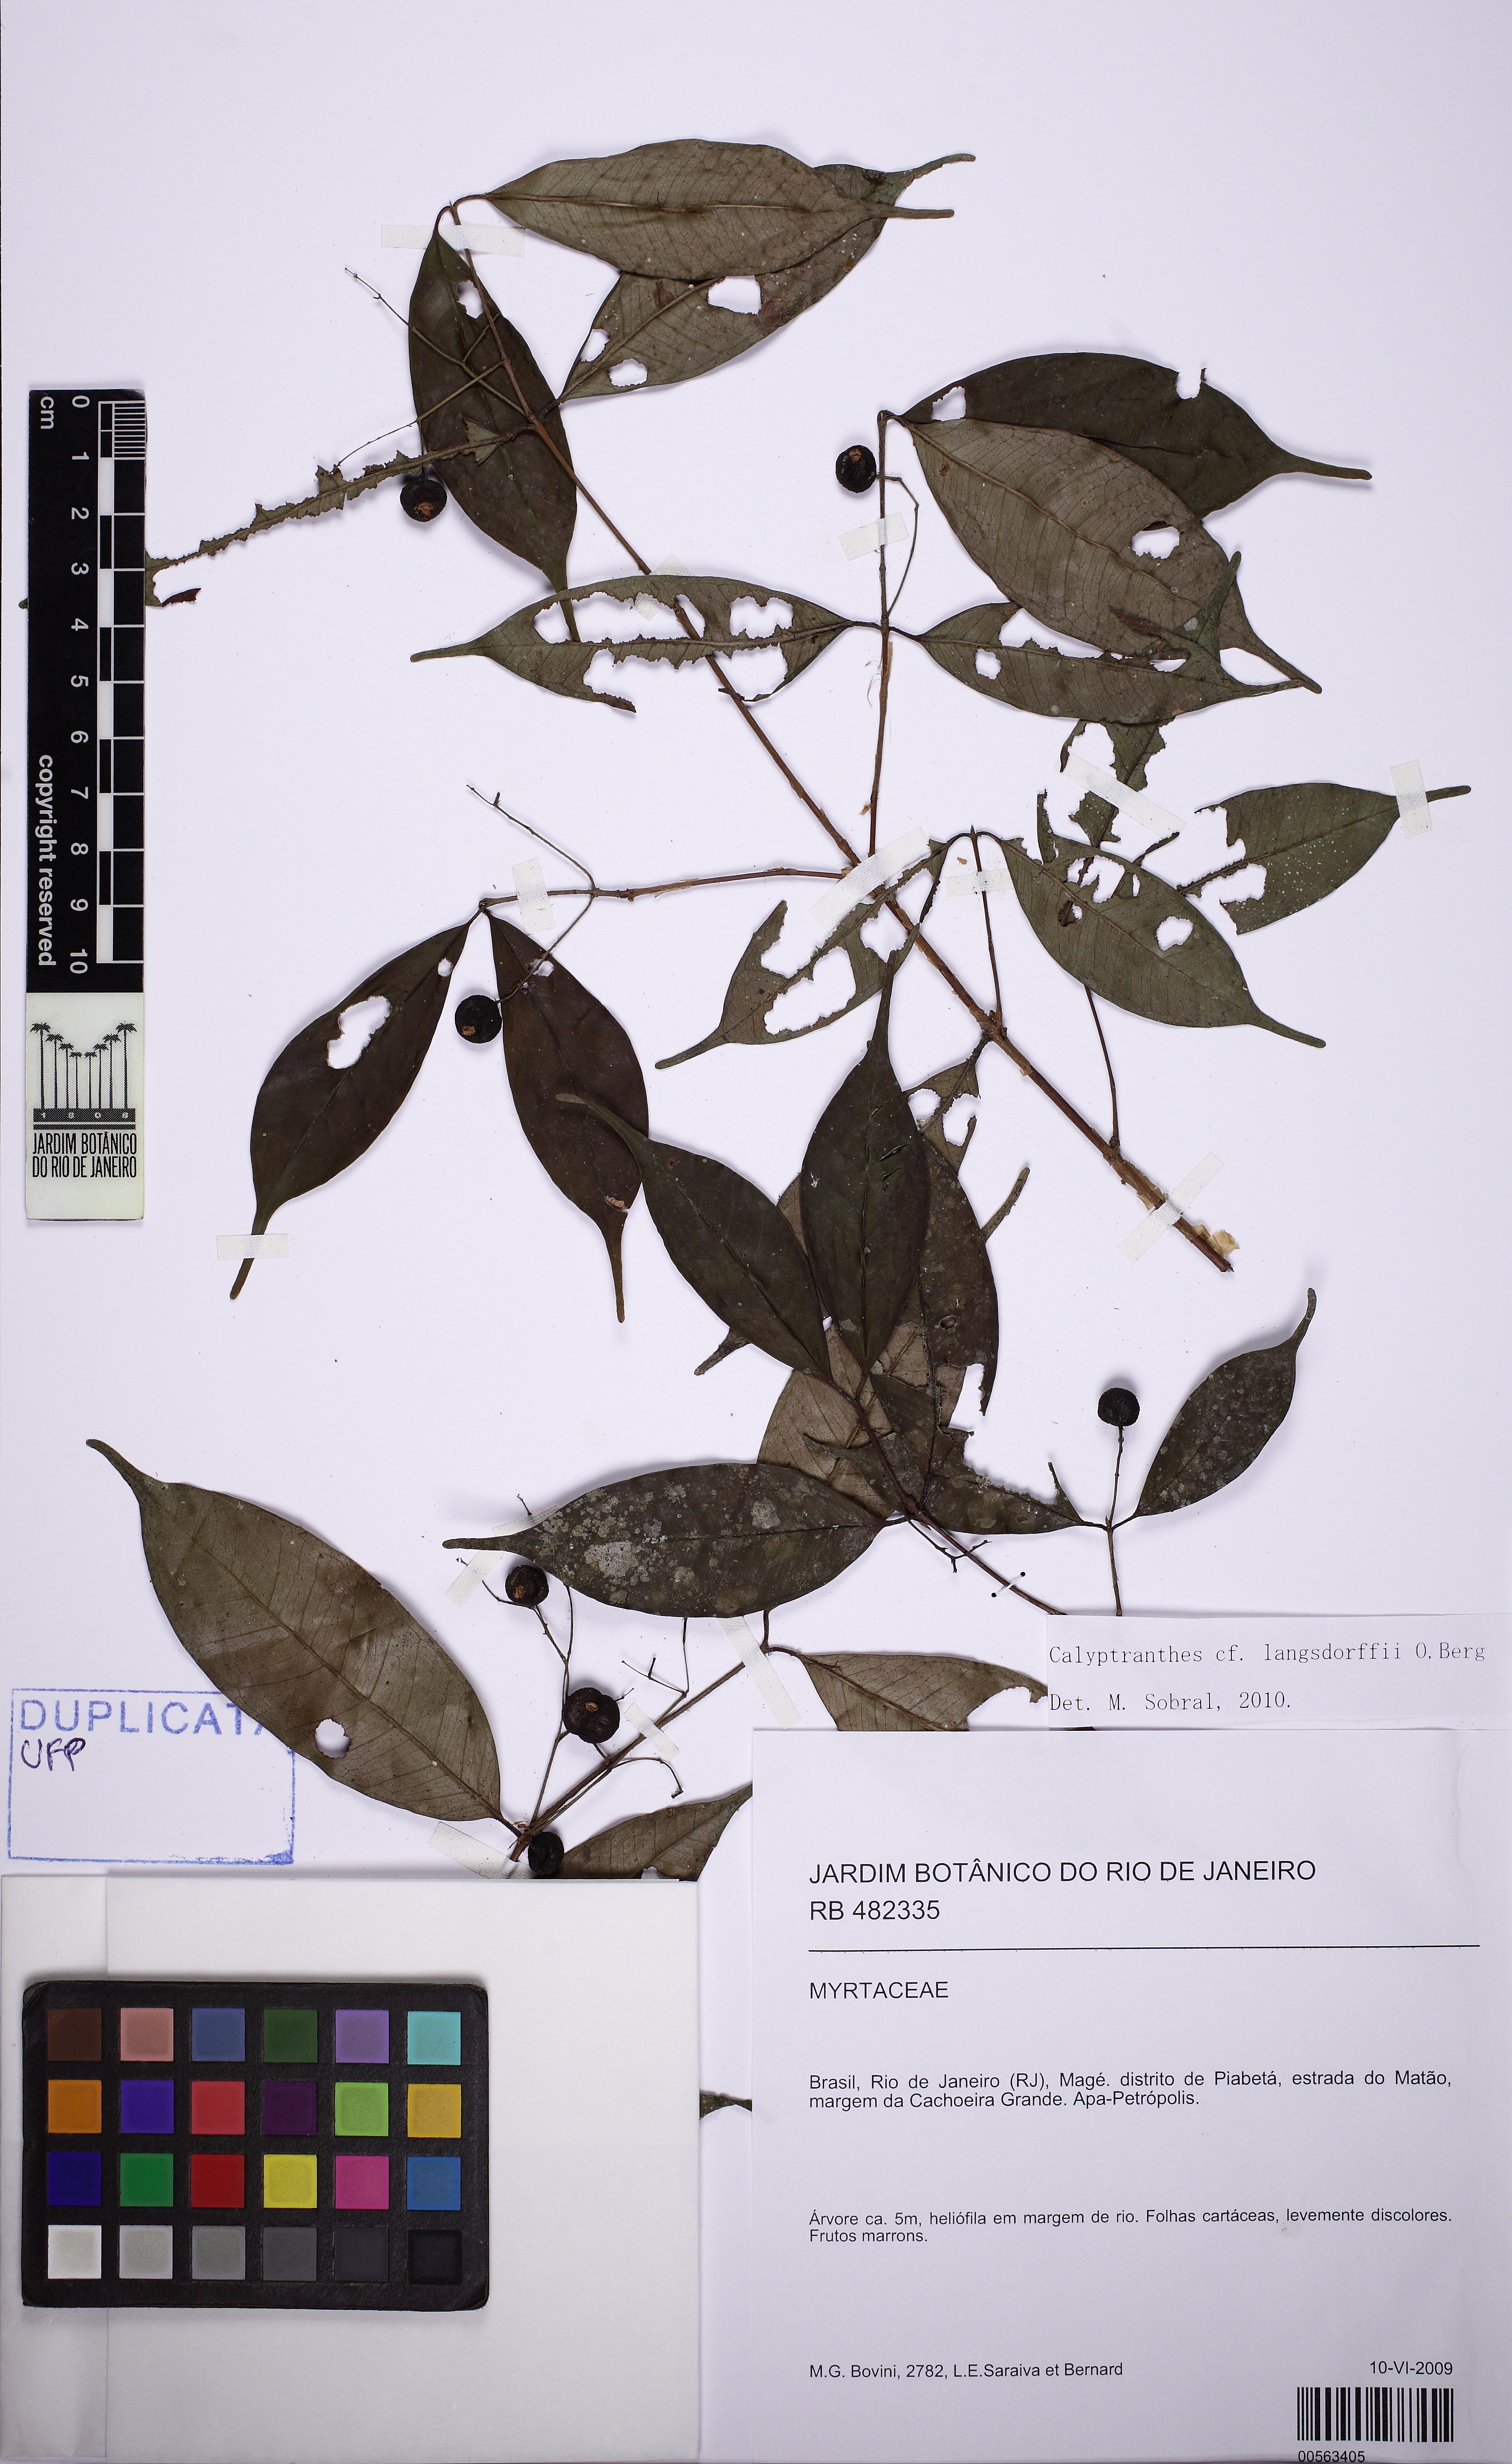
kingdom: Plantae
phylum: Tracheophyta
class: Magnoliopsida
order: Myrtales
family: Myrtaceae
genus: Myrcia
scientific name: Myrcia marliereana
